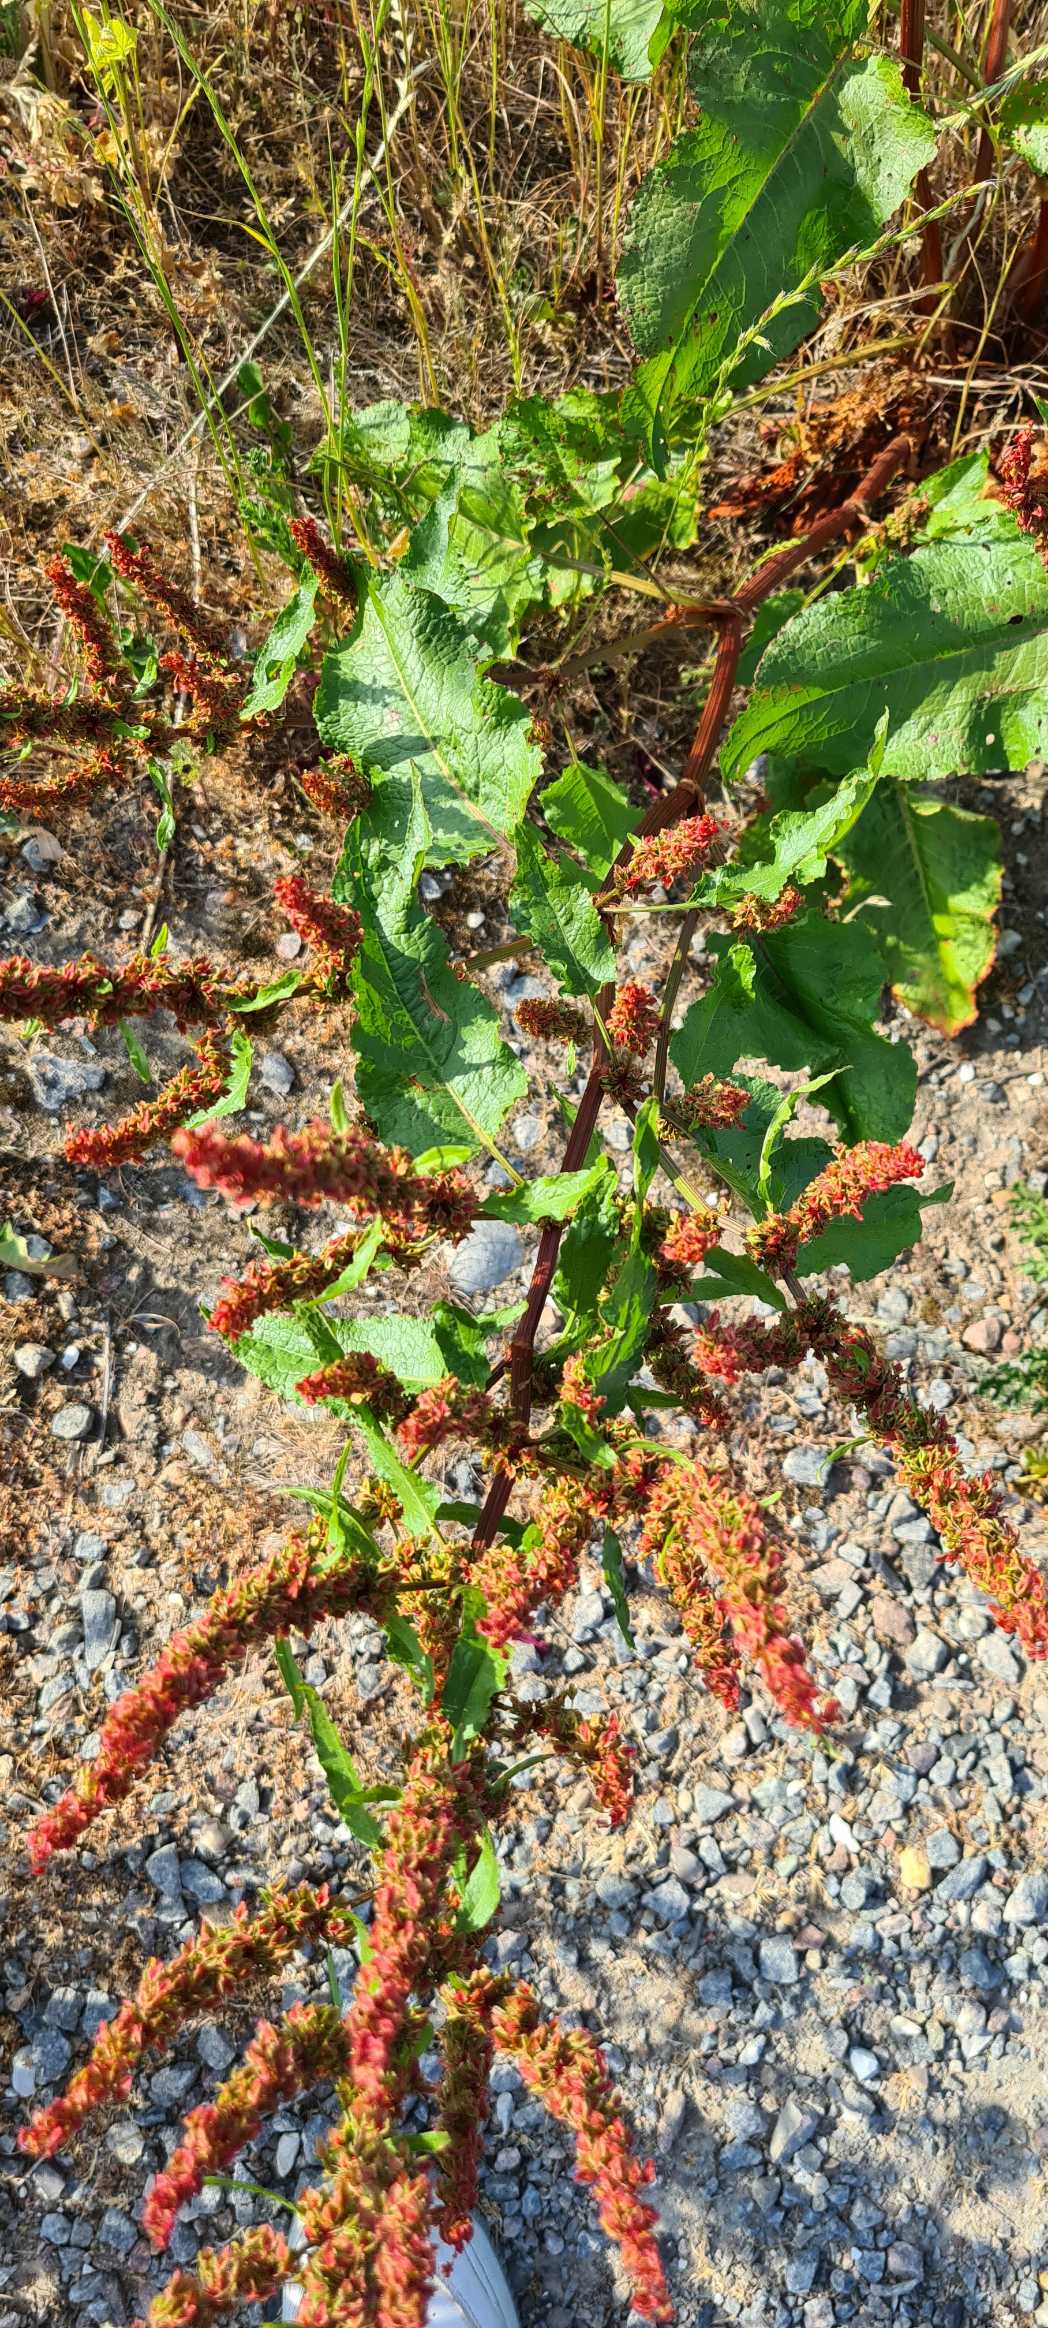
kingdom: Plantae
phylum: Tracheophyta
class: Magnoliopsida
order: Caryophyllales
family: Polygonaceae
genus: Rumex
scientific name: Rumex obtusifolius
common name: Butbladet skræppe
